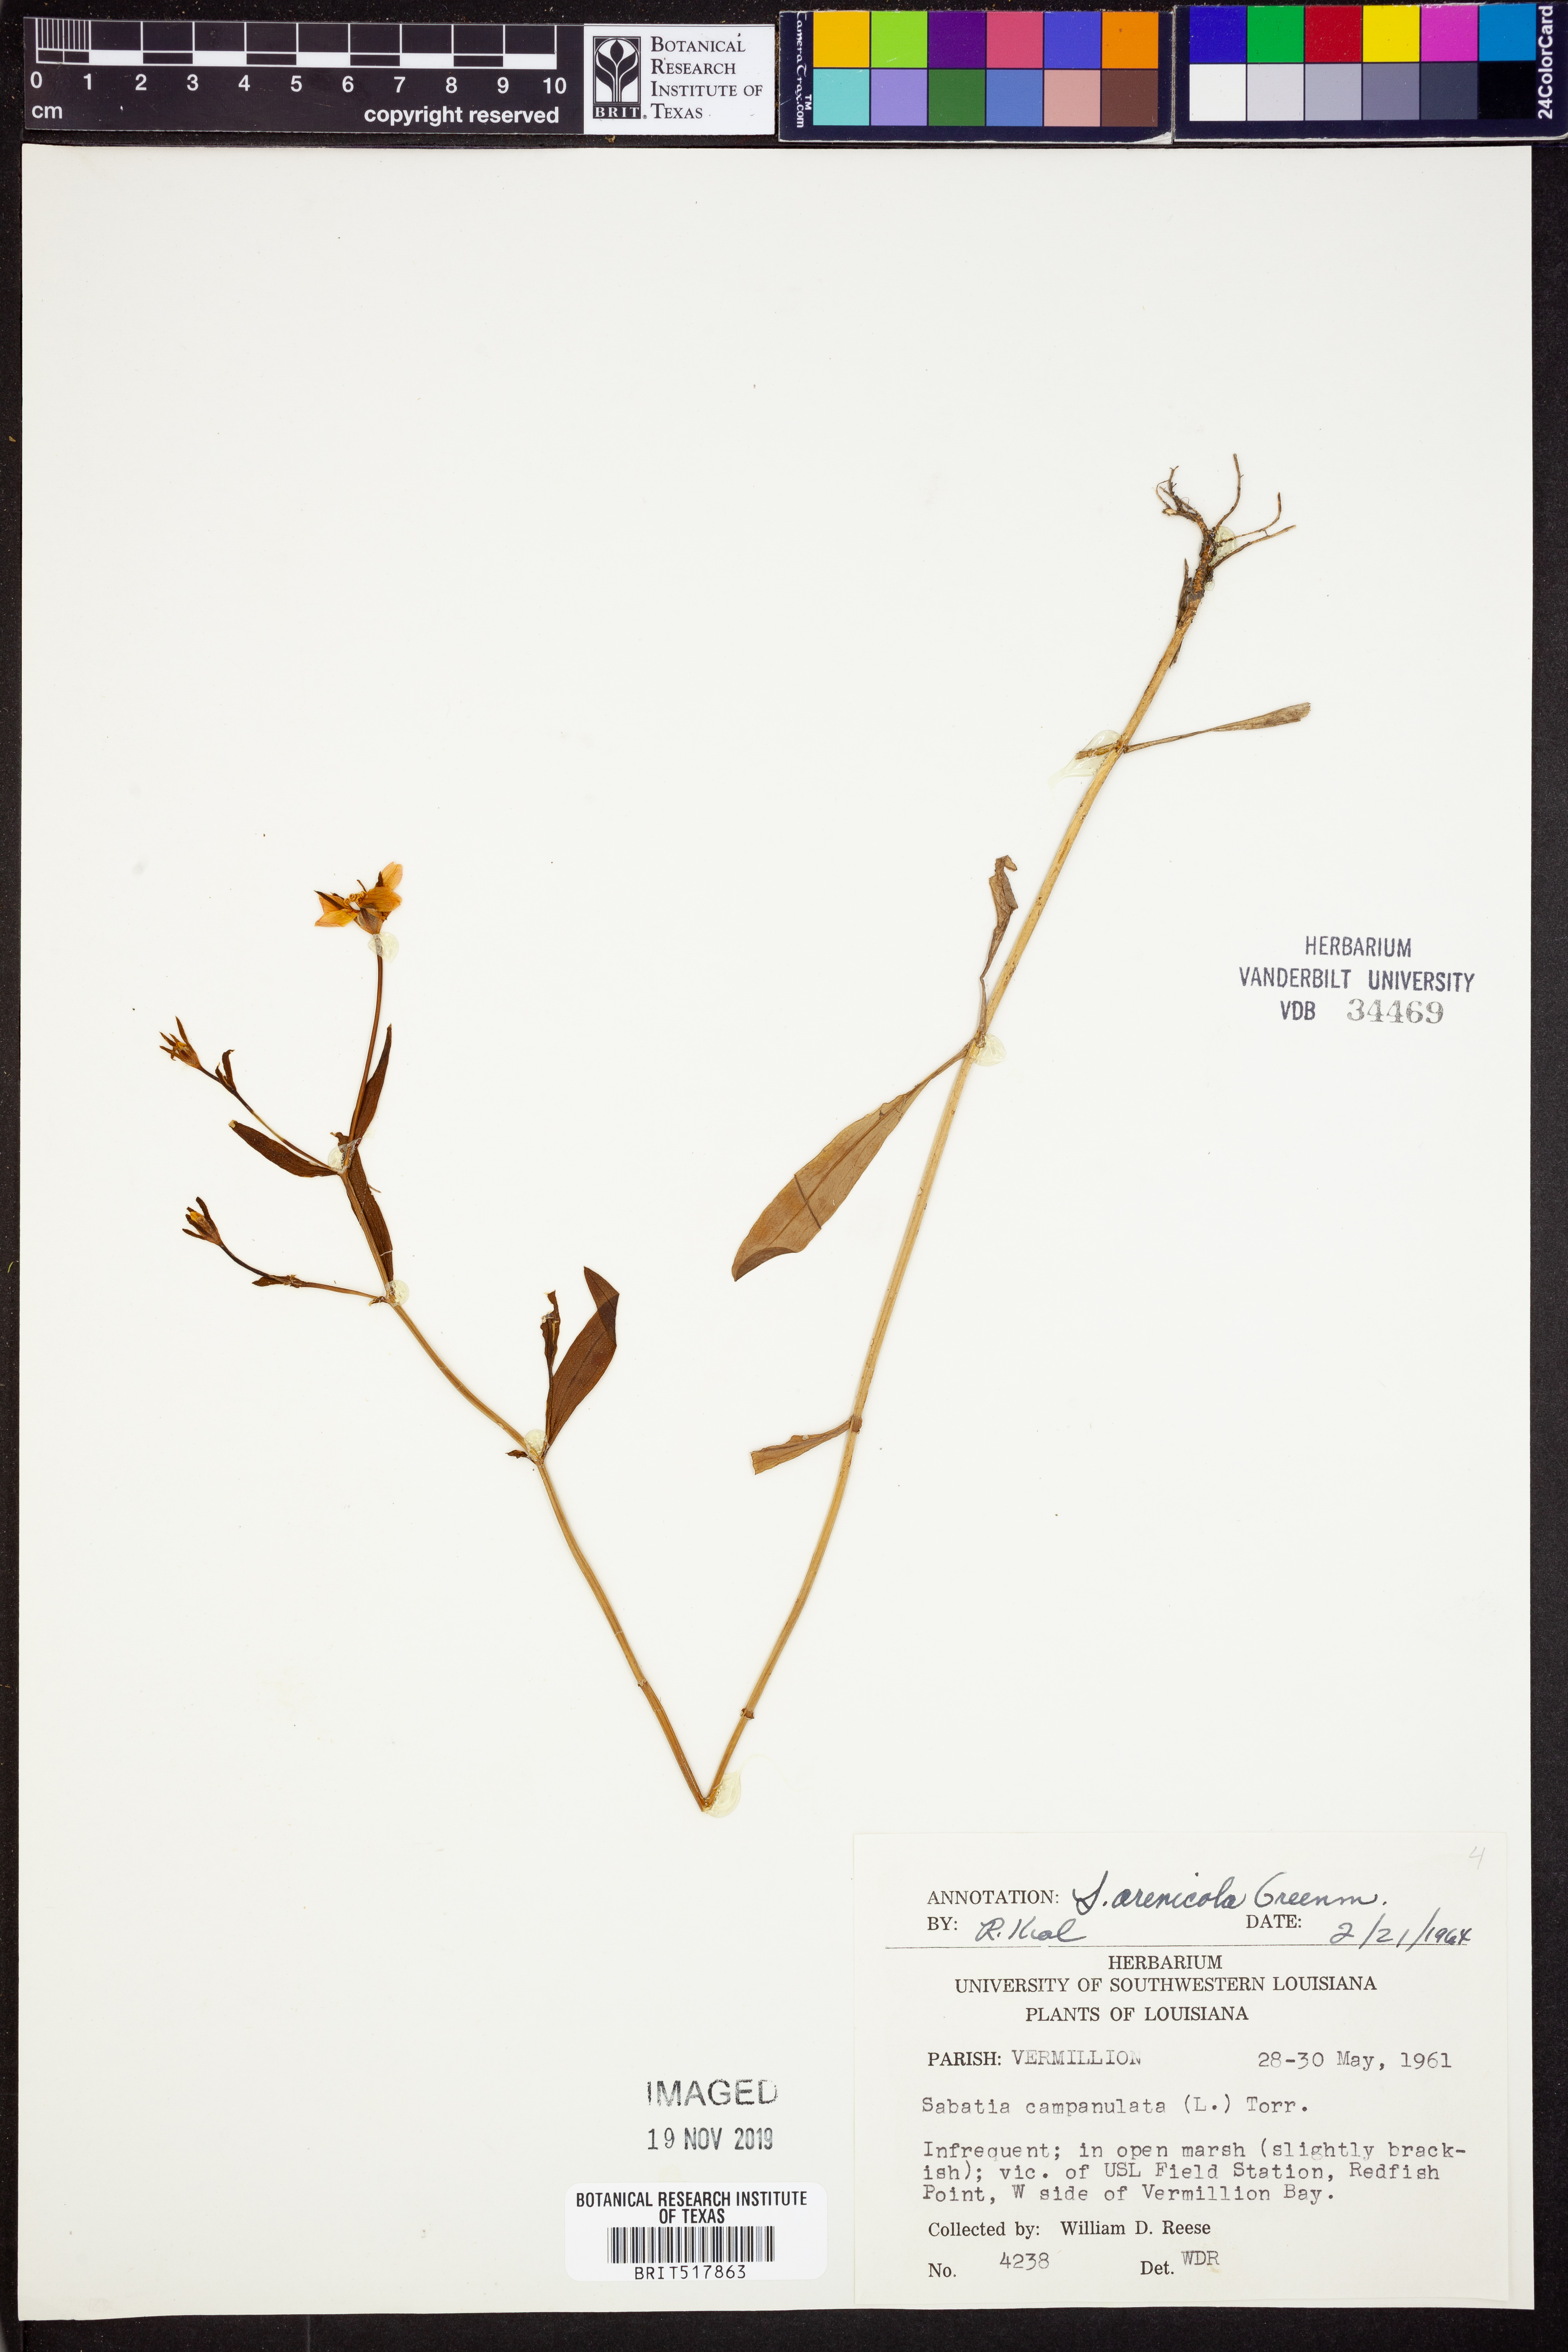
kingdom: Plantae
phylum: Tracheophyta
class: Magnoliopsida
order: Gentianales
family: Gentianaceae
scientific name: Gentianaceae
